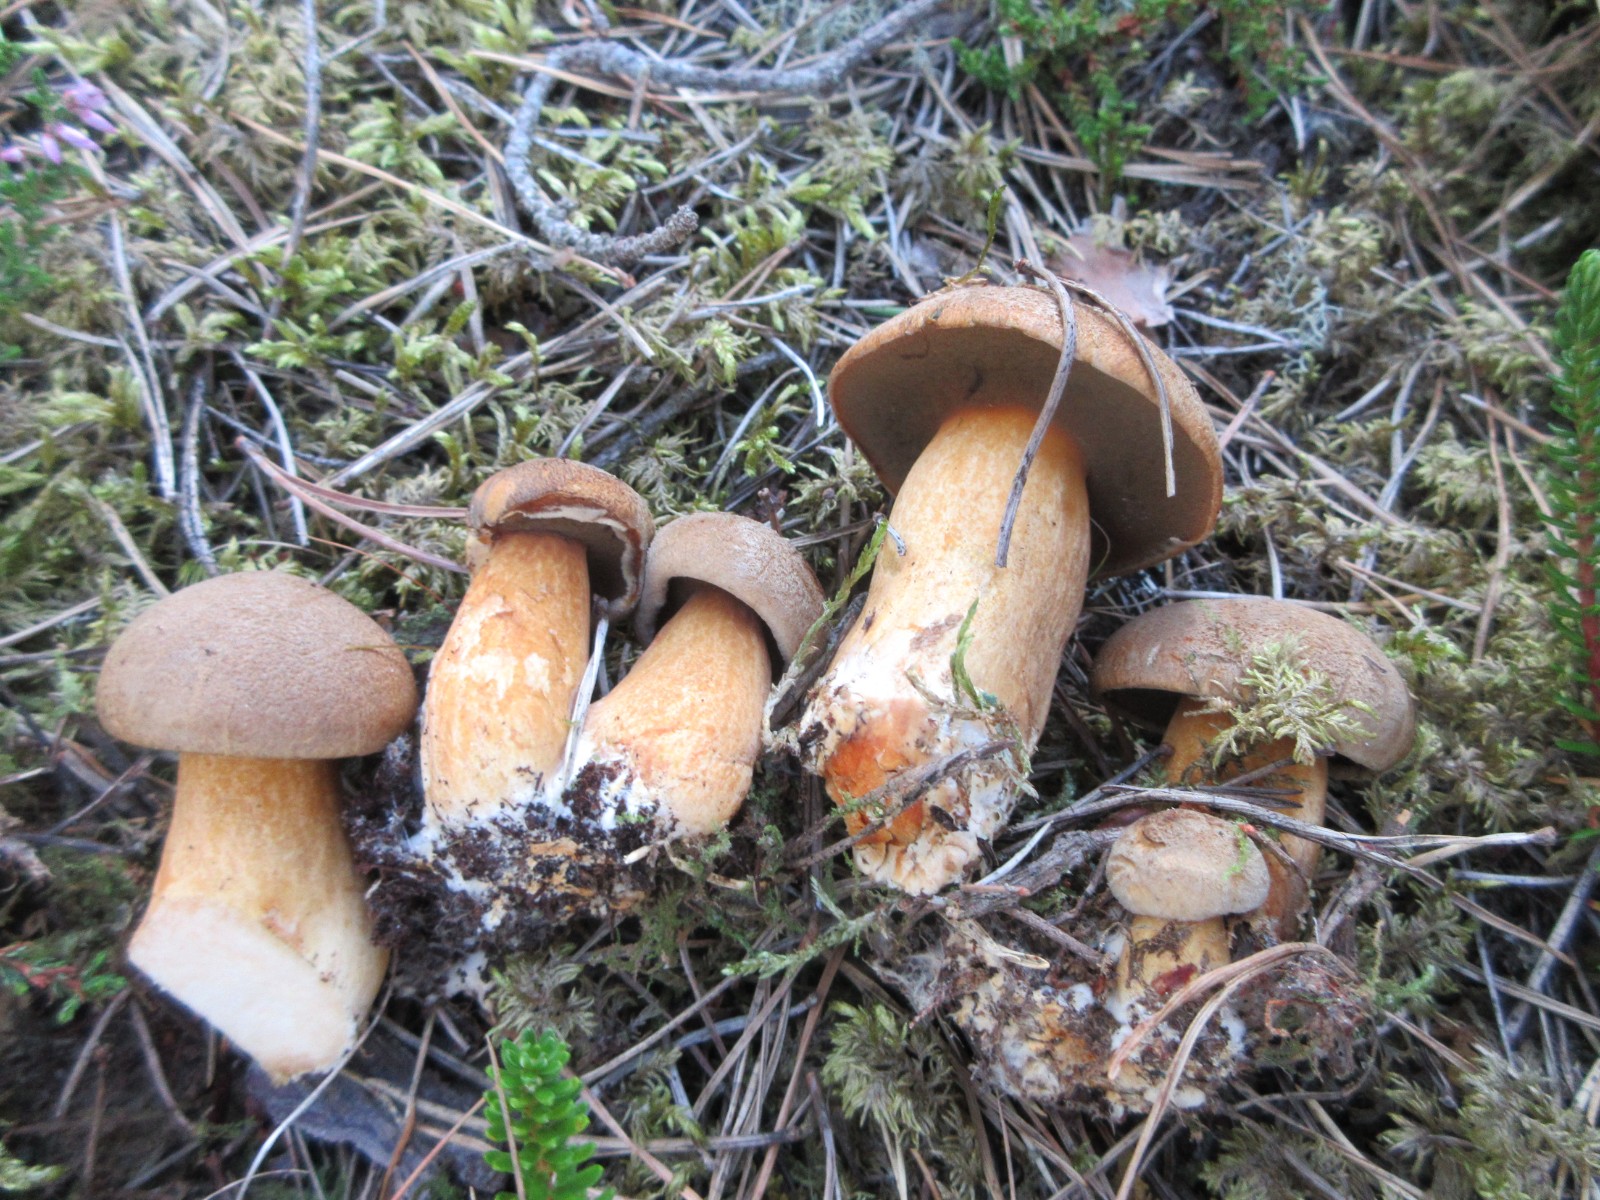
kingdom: Fungi
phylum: Basidiomycota
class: Agaricomycetes
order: Boletales
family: Suillaceae
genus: Suillus
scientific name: Suillus variegatus
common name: broget slimrørhat
